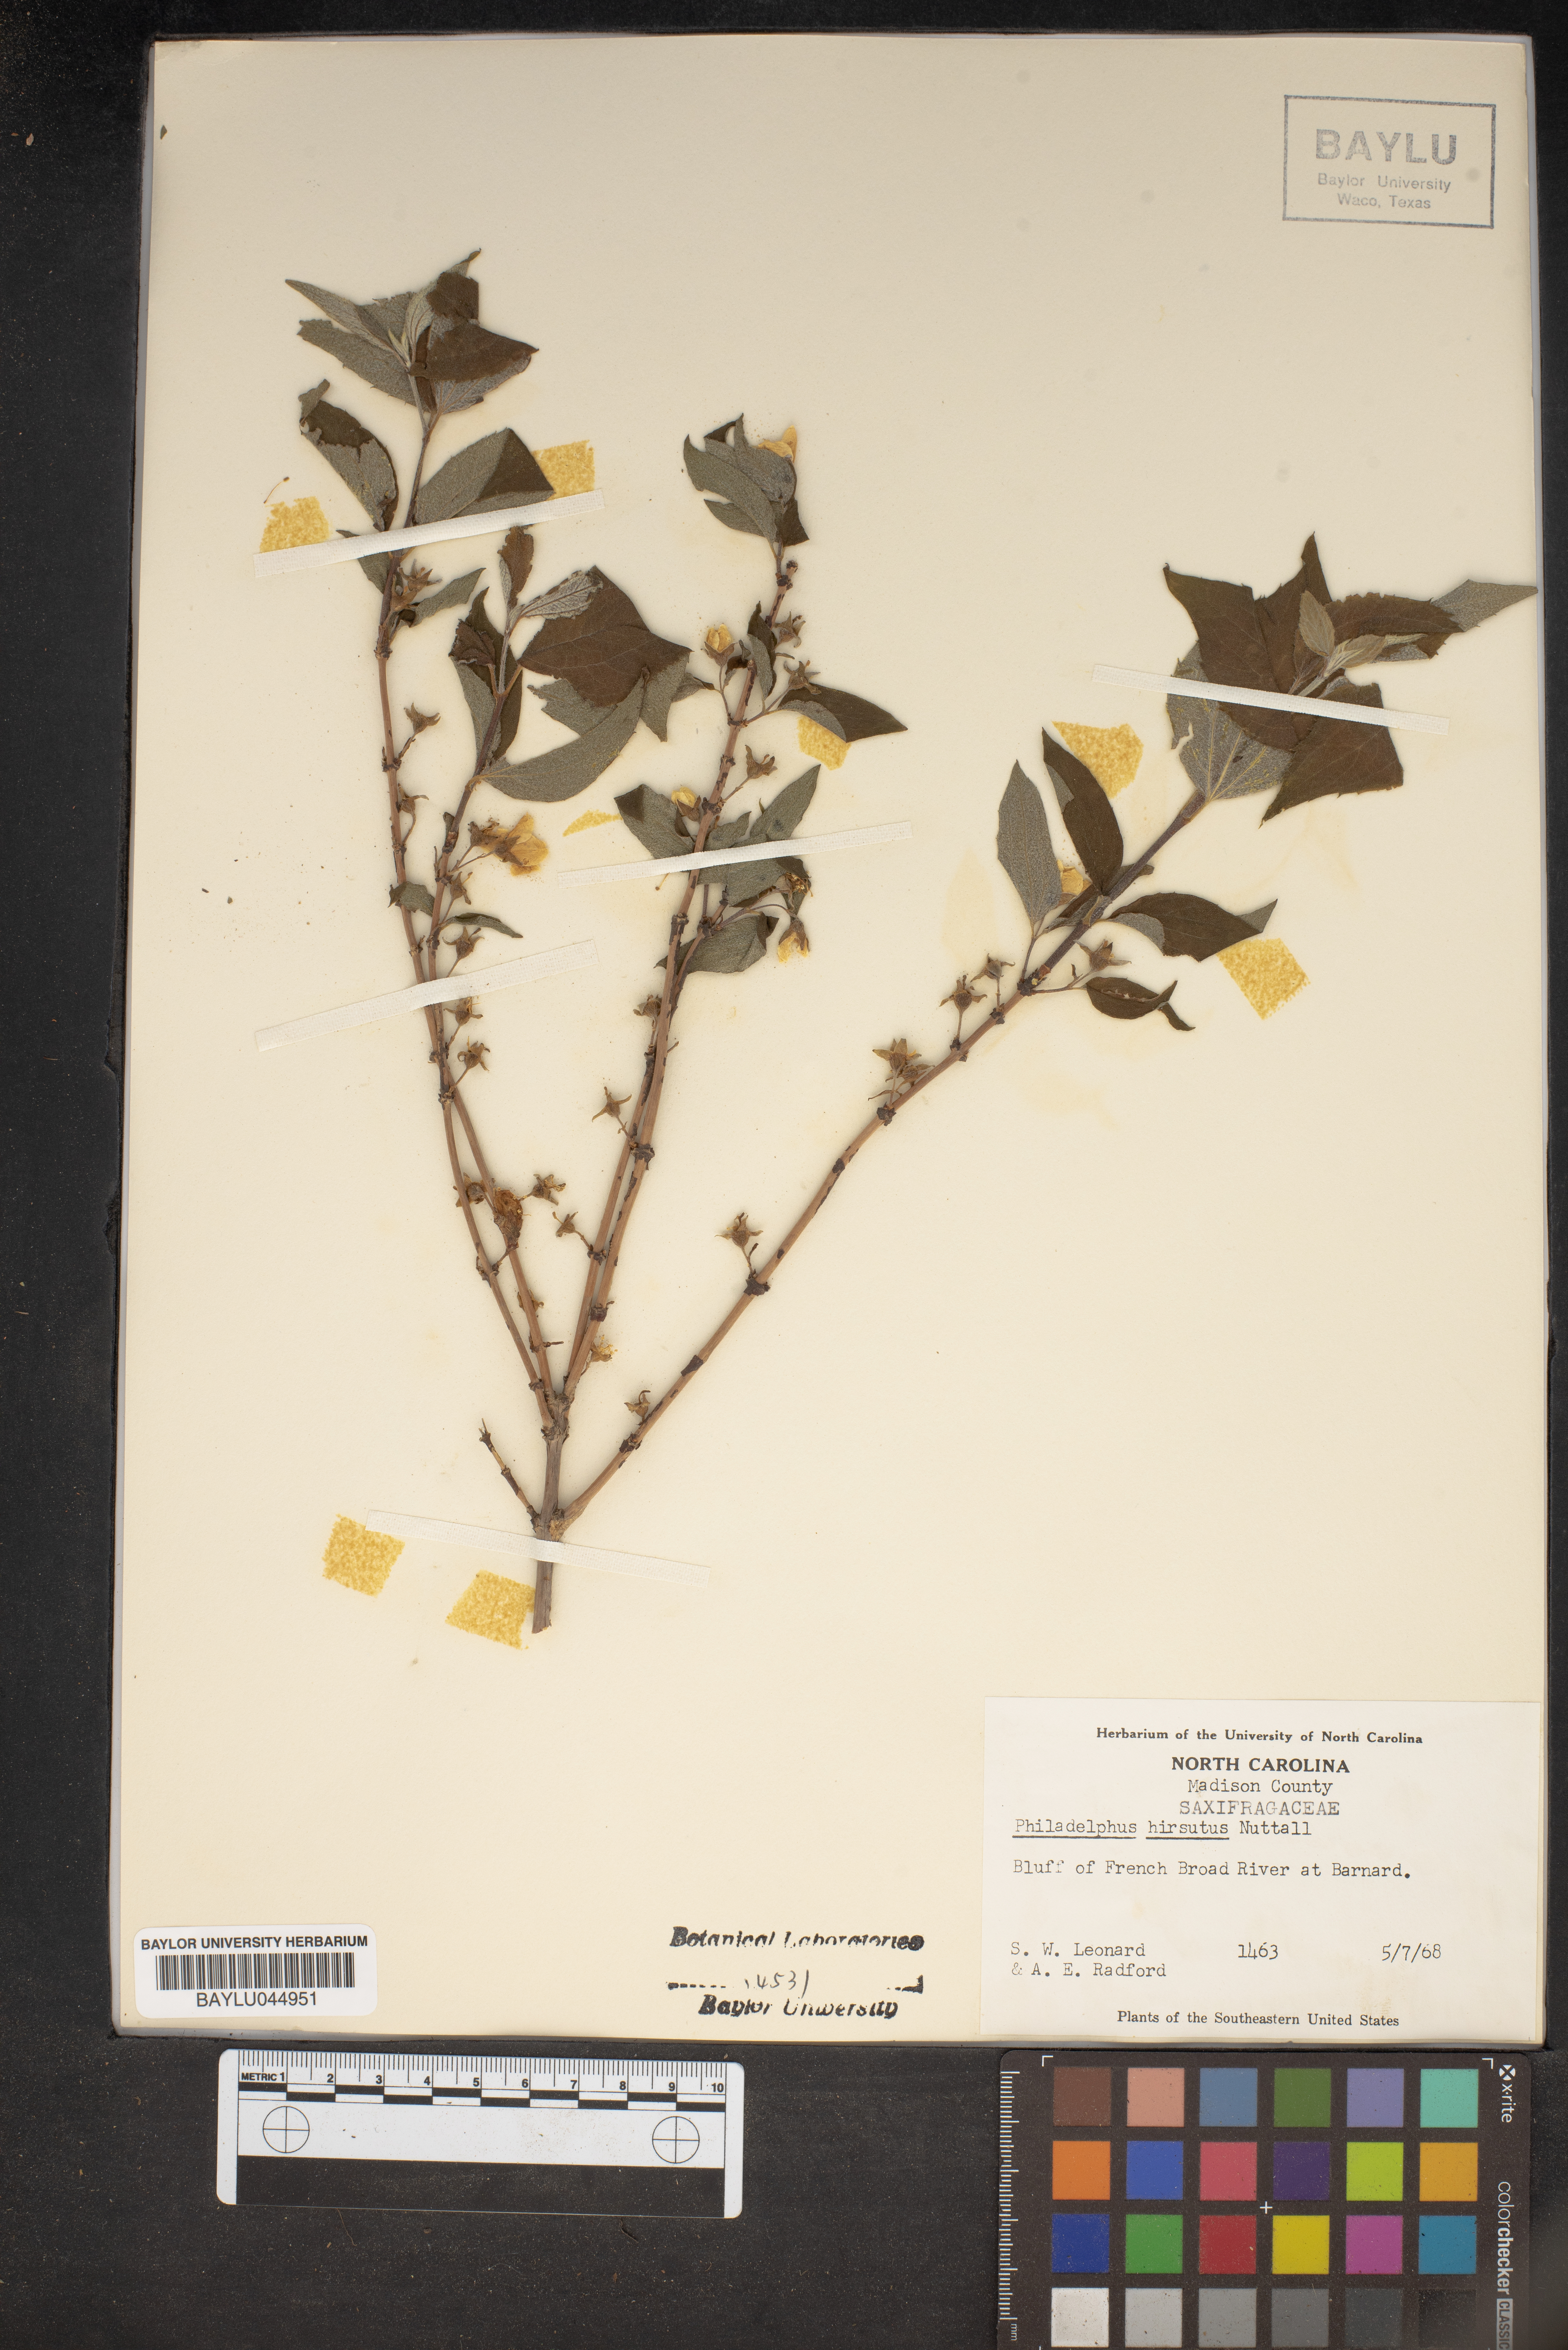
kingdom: Plantae
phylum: Tracheophyta
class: Magnoliopsida
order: Cornales
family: Hydrangeaceae
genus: Philadelphus
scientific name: Philadelphus hirsutus
